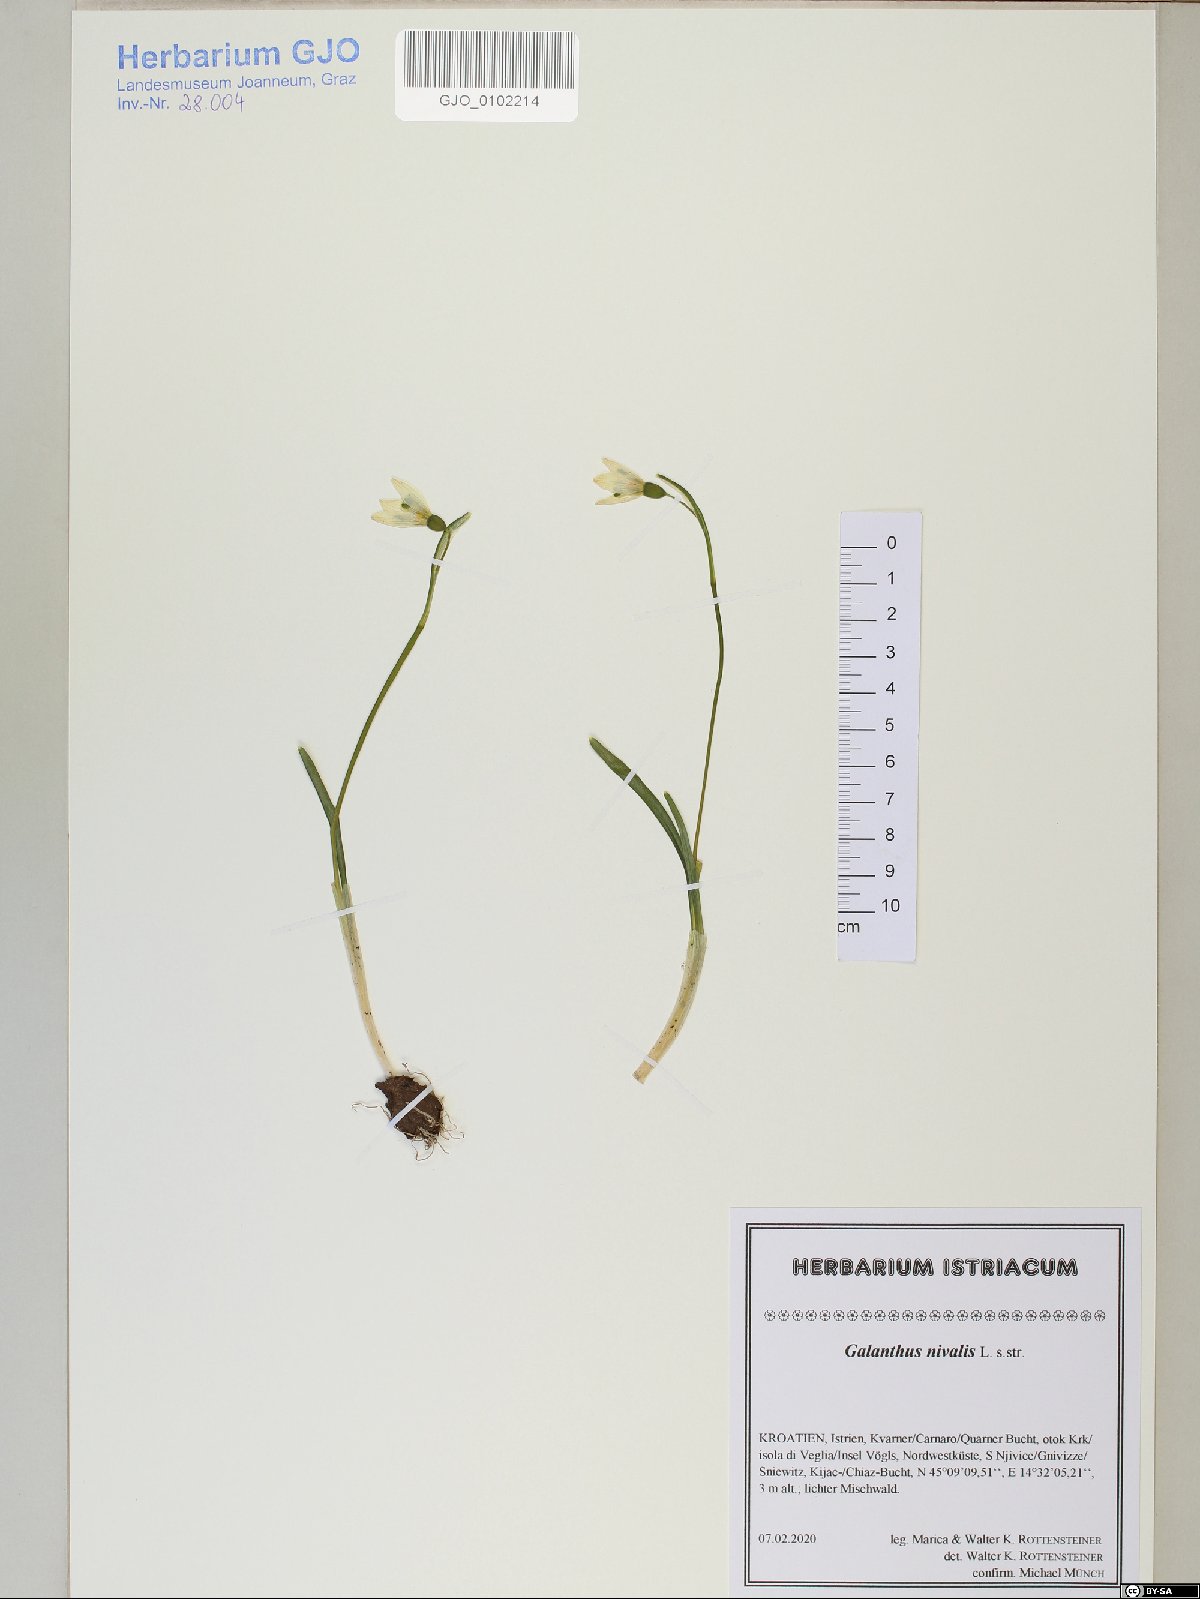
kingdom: Plantae
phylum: Tracheophyta
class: Liliopsida
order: Asparagales
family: Amaryllidaceae
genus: Galanthus
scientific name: Galanthus nivalis
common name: Snowdrop
